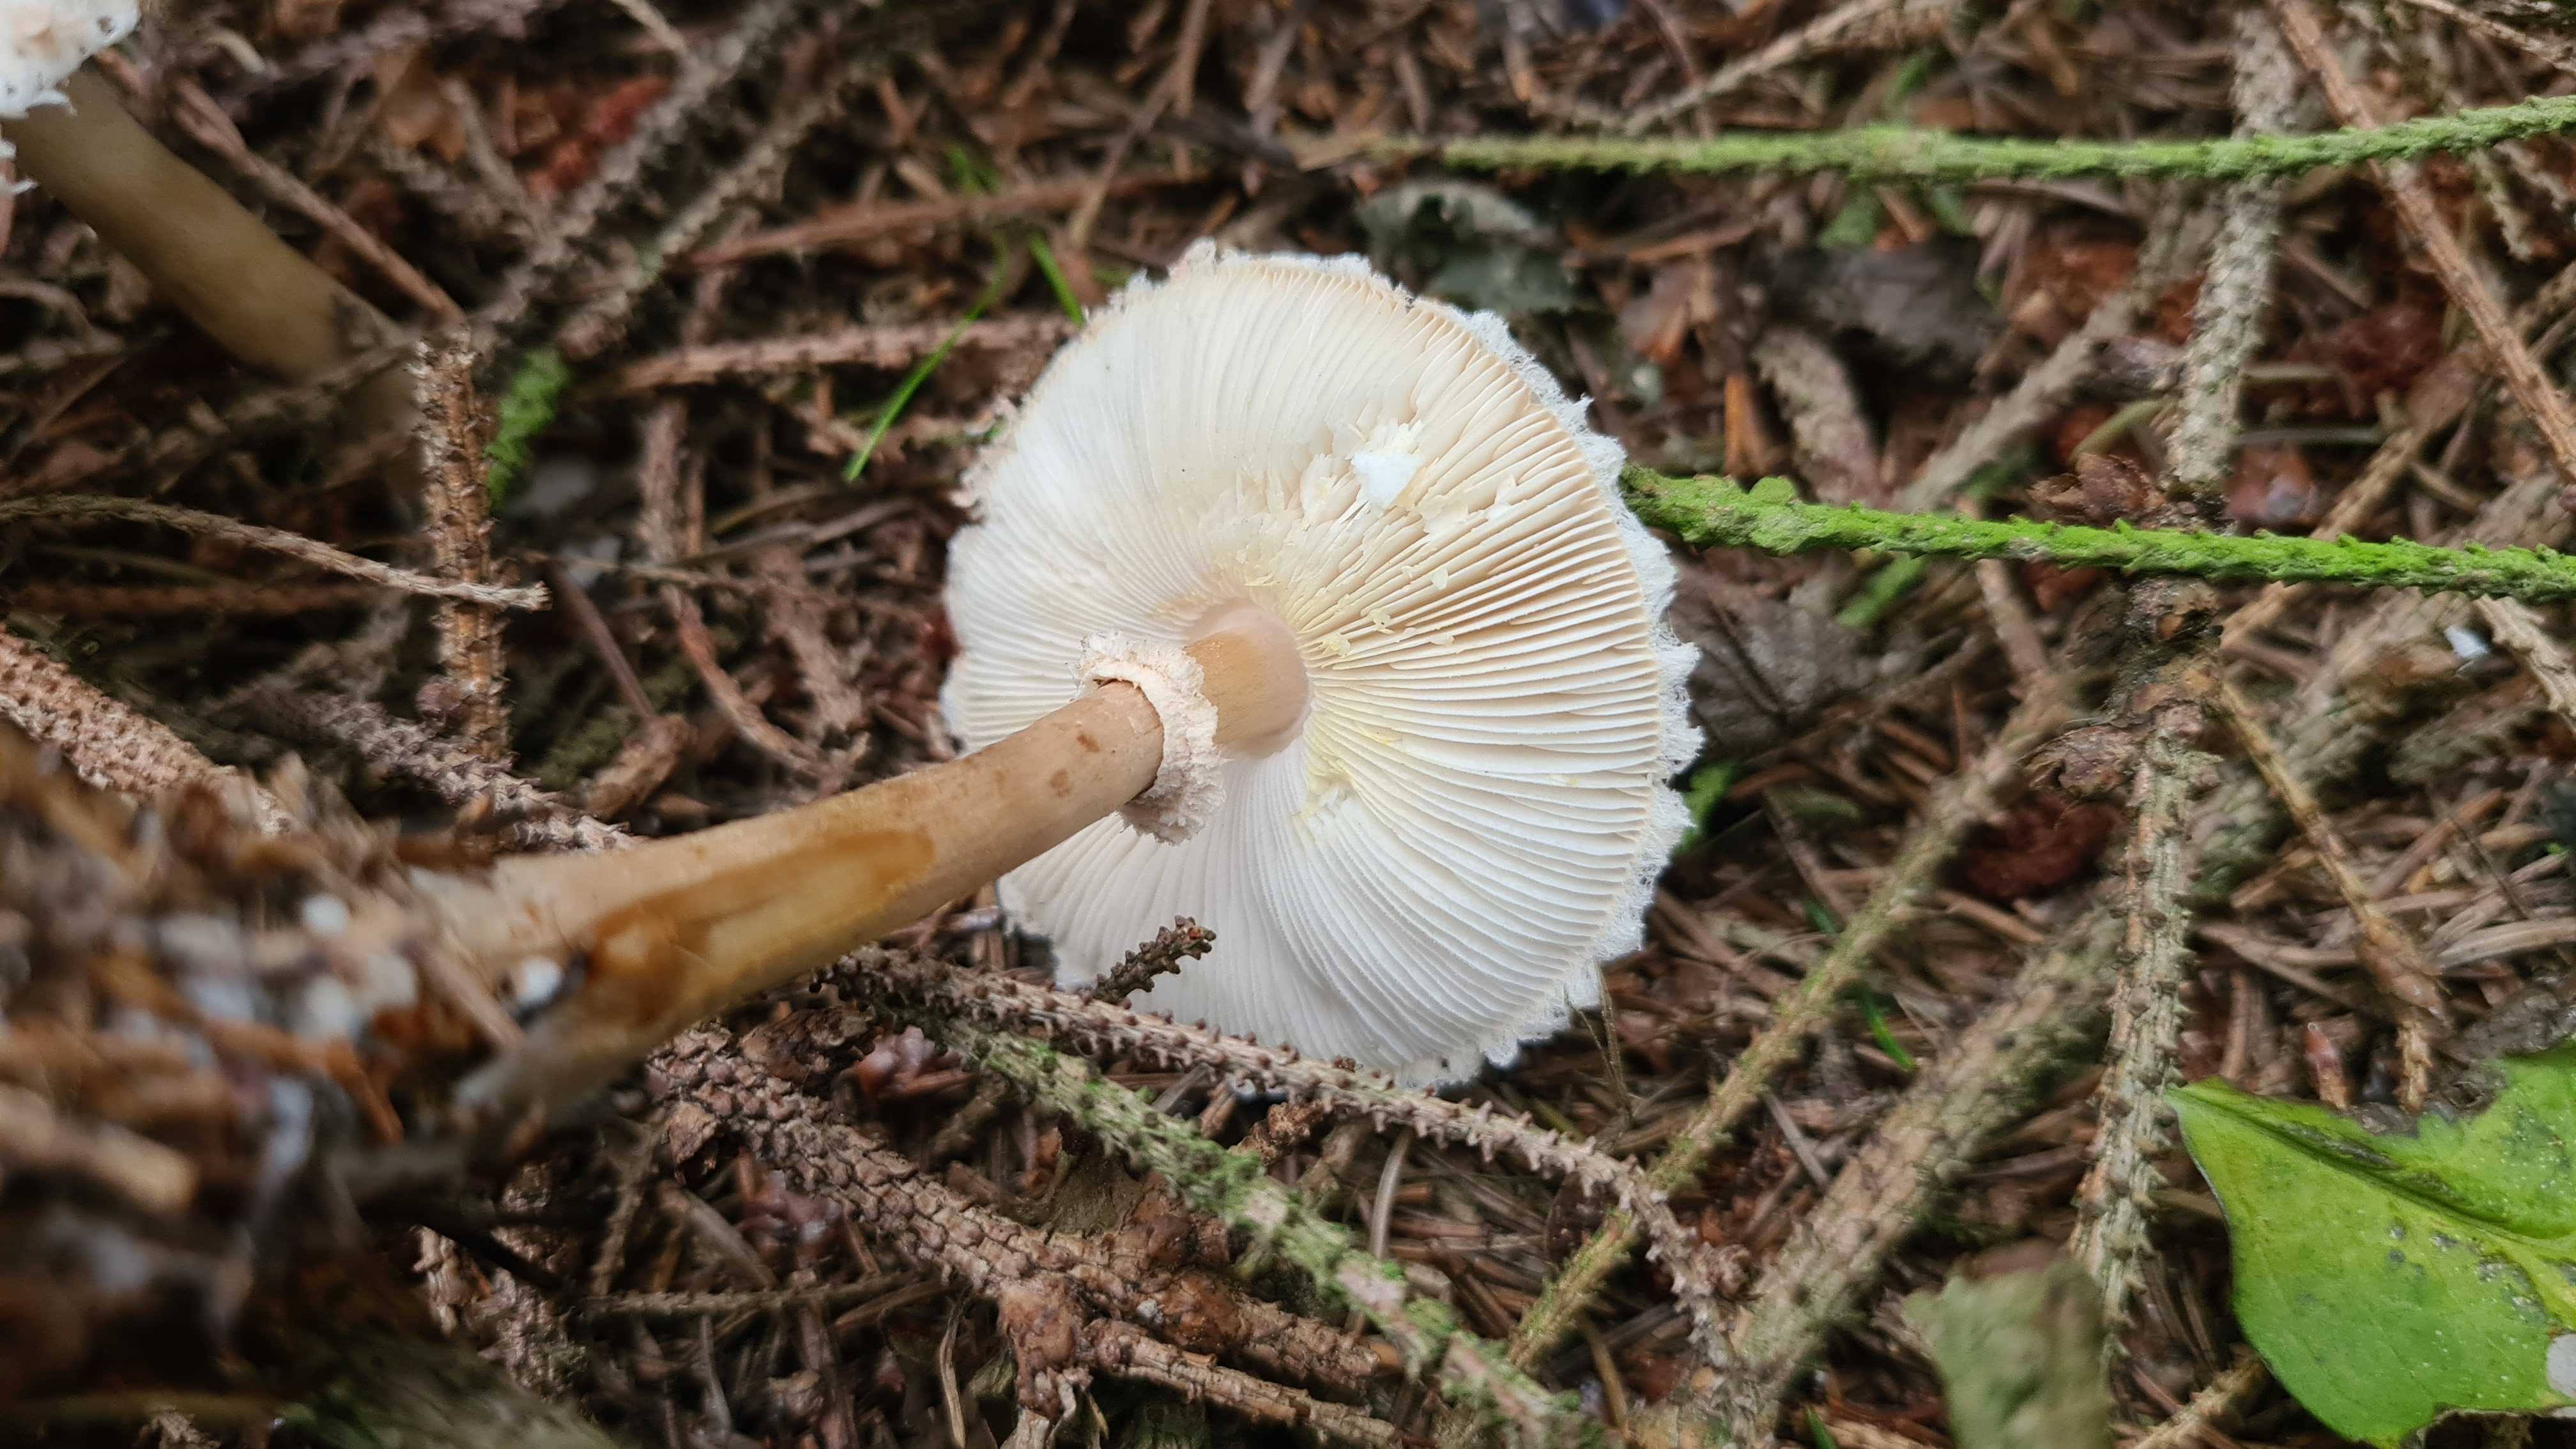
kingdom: Fungi
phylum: Basidiomycota
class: Agaricomycetes
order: Agaricales
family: Agaricaceae
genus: Leucoagaricus
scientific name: Leucoagaricus nympharum
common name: gran-silkehat
